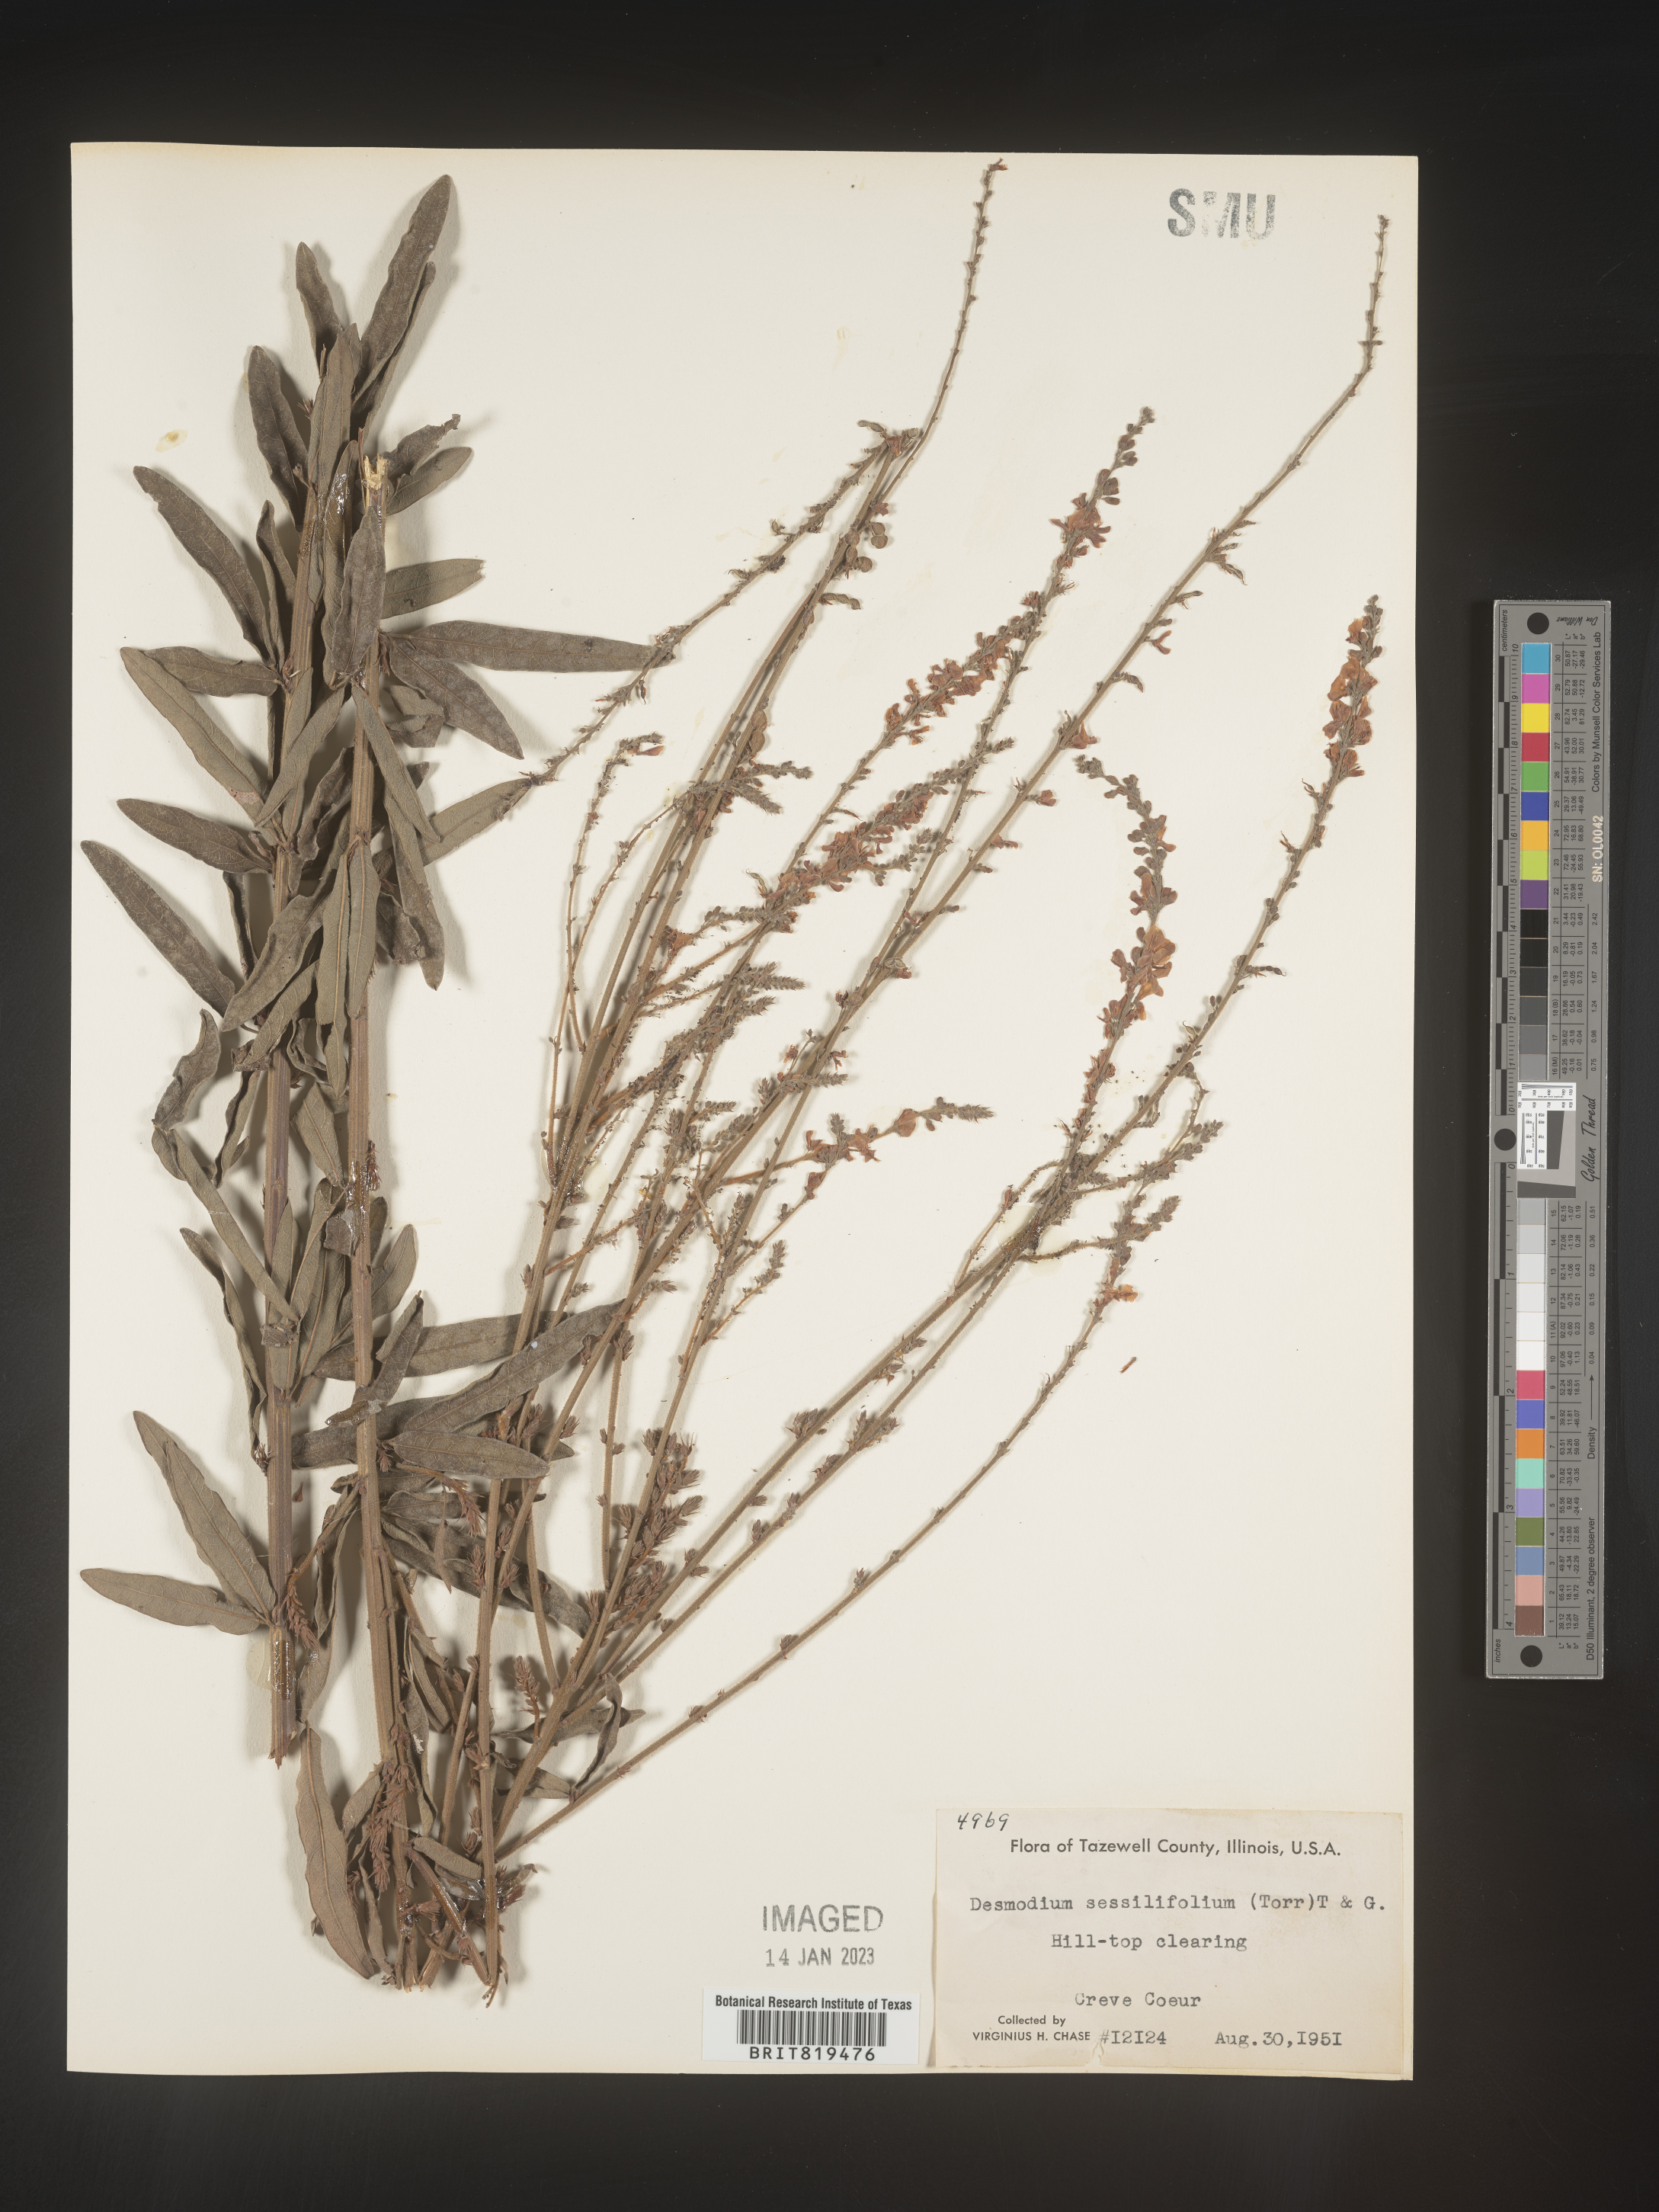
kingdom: Plantae
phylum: Tracheophyta
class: Magnoliopsida
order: Fabales
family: Fabaceae
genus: Desmodium
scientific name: Desmodium sessilifolium
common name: Sessile tick-clover
